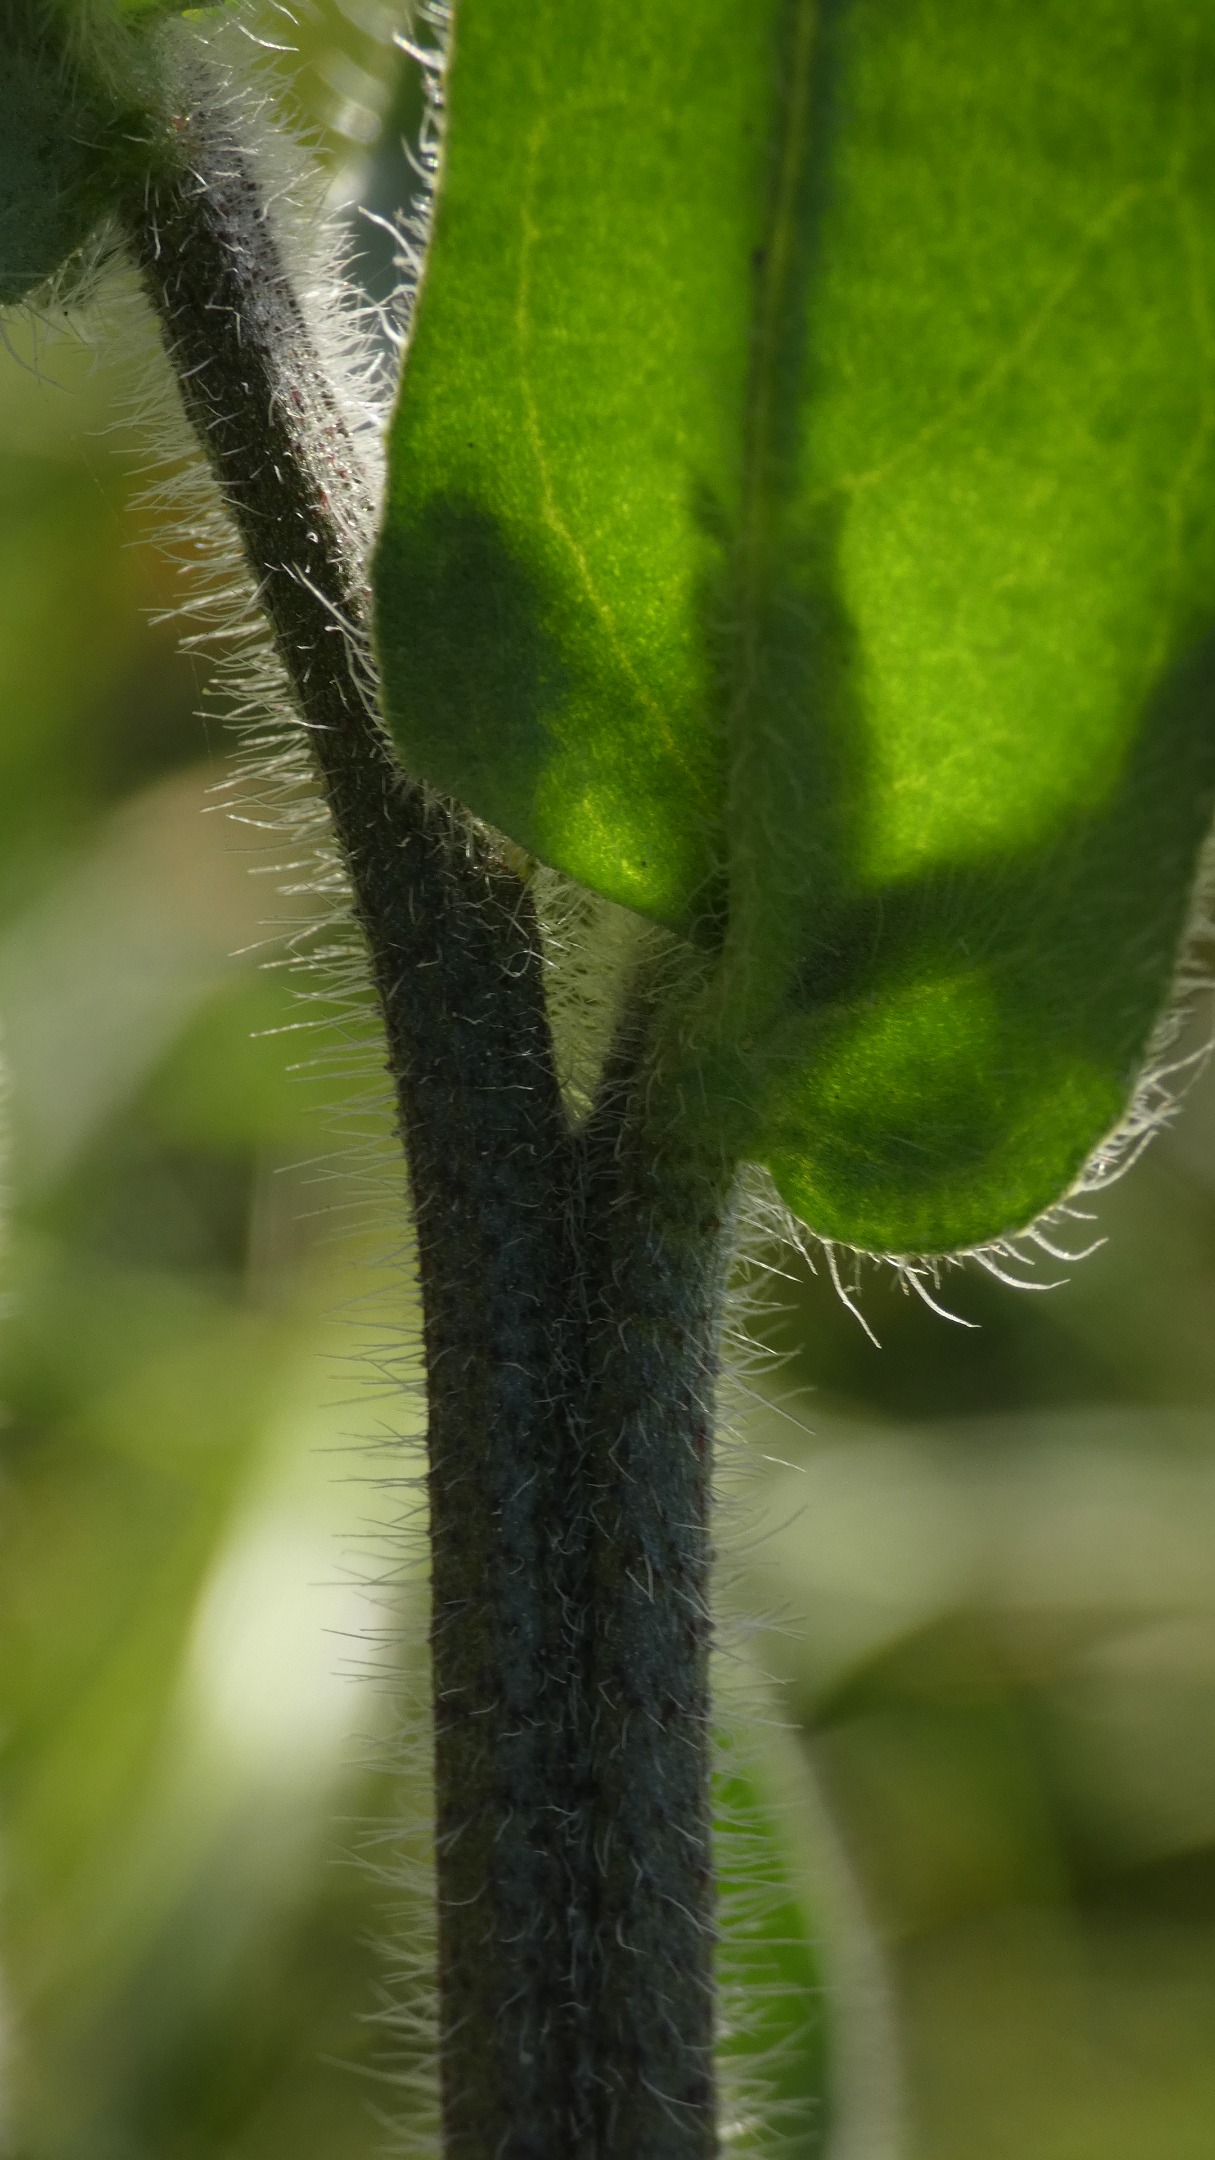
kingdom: Plantae
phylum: Tracheophyta
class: Magnoliopsida
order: Boraginales
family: Boraginaceae
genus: Anchusa
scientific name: Anchusa officinalis
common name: Læge-oksetunge
